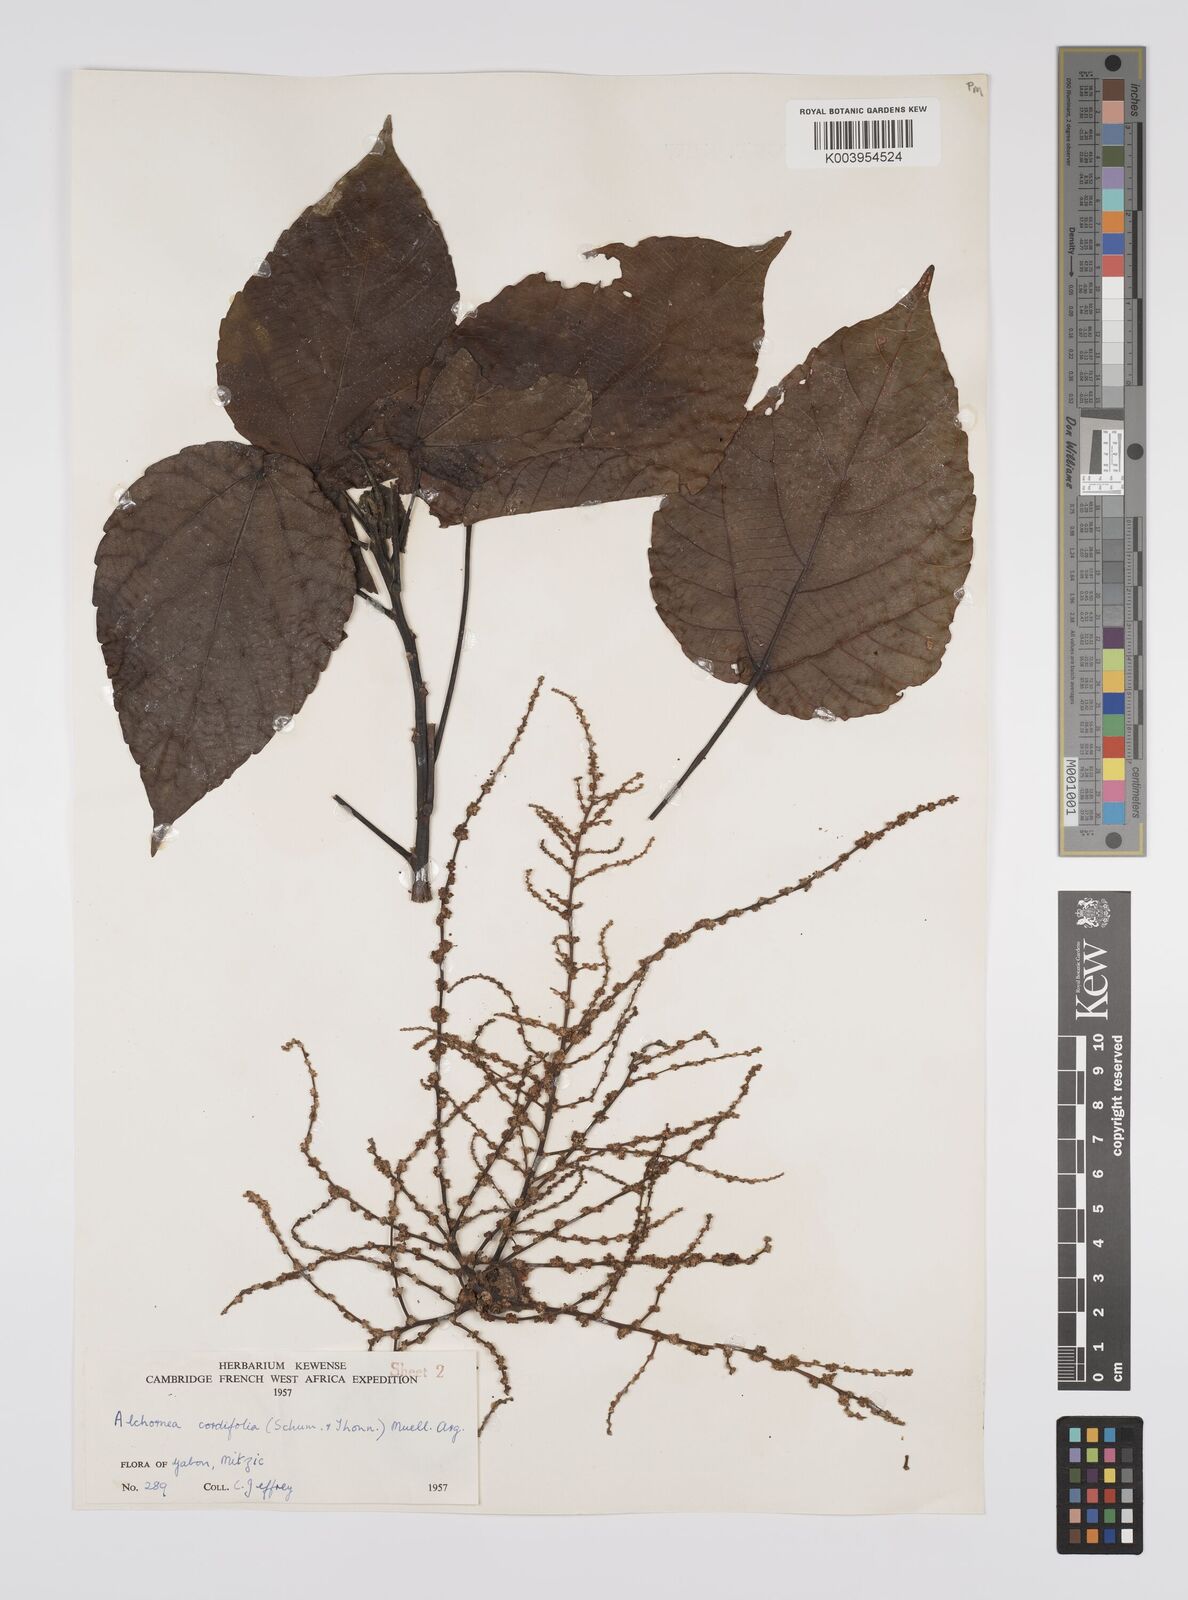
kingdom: Plantae
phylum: Tracheophyta
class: Magnoliopsida
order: Malpighiales
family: Euphorbiaceae
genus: Alchornea
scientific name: Alchornea cordifolia
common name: Christmasbush
